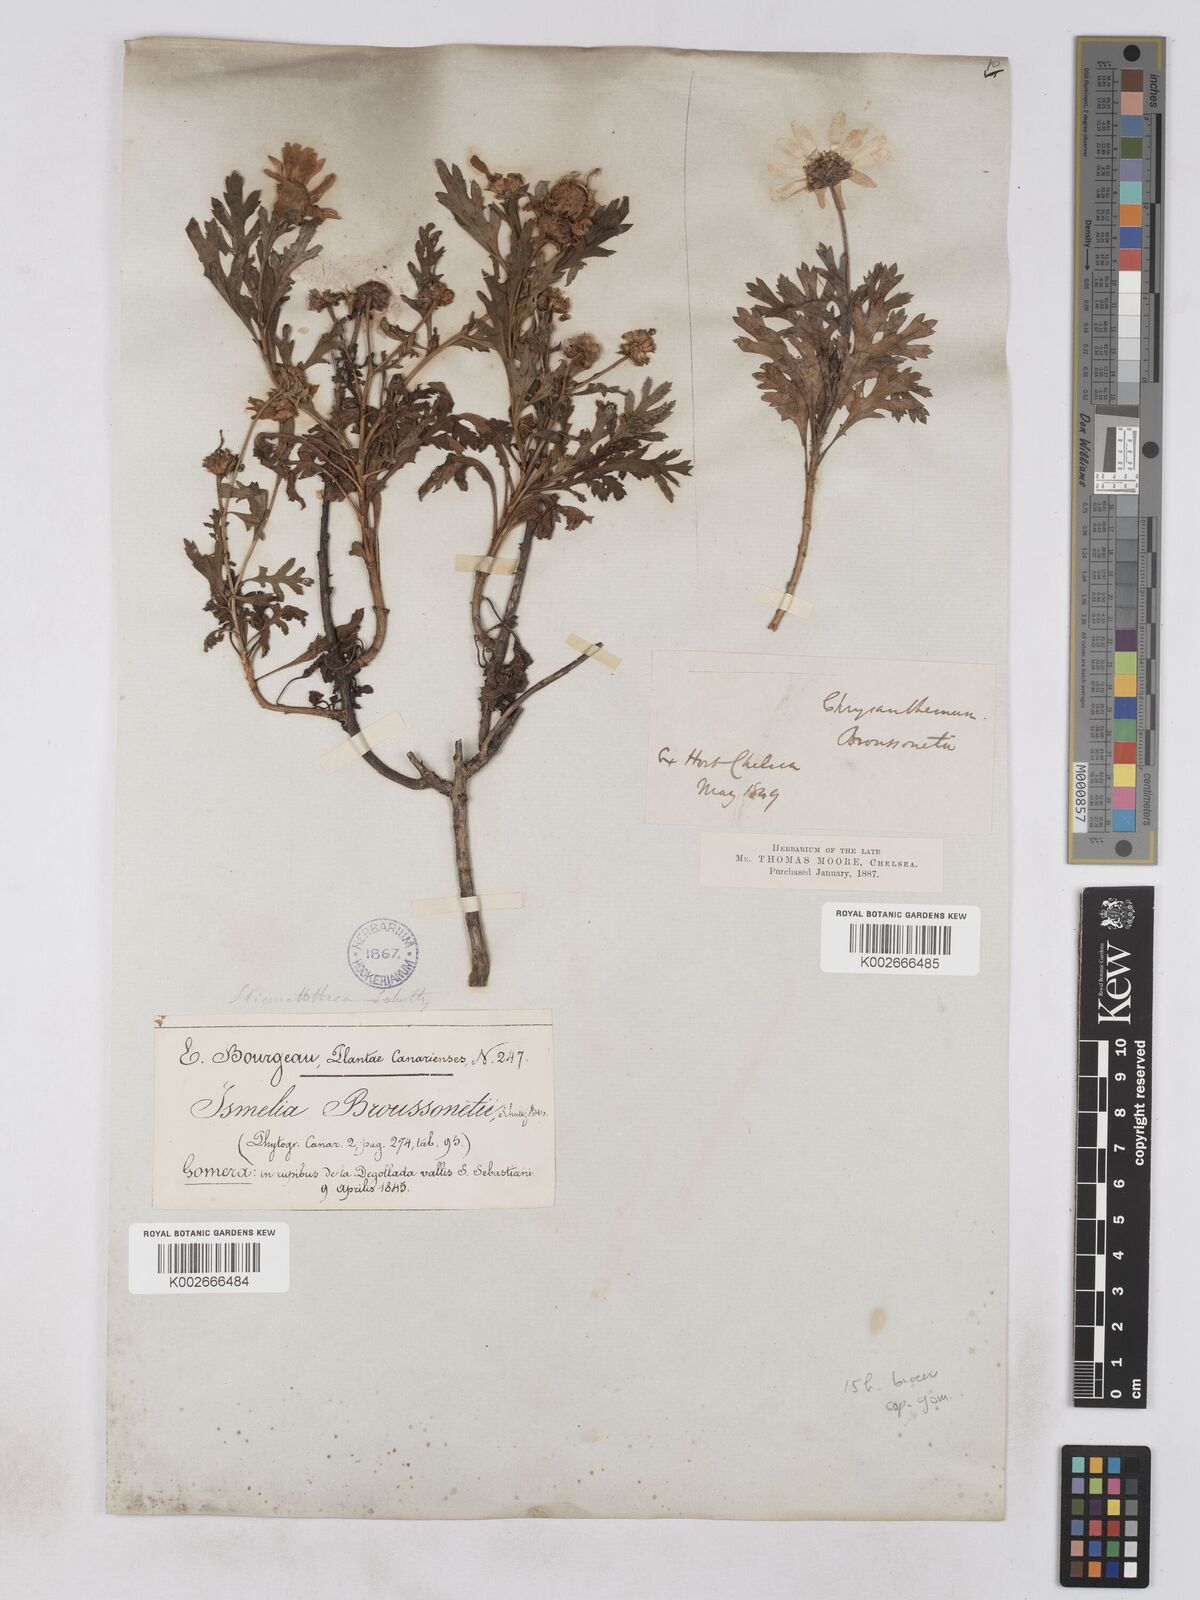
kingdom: Plantae
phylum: Tracheophyta
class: Magnoliopsida
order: Asterales
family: Asteraceae
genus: Argyranthemum
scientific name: Argyranthemum callichrysum
